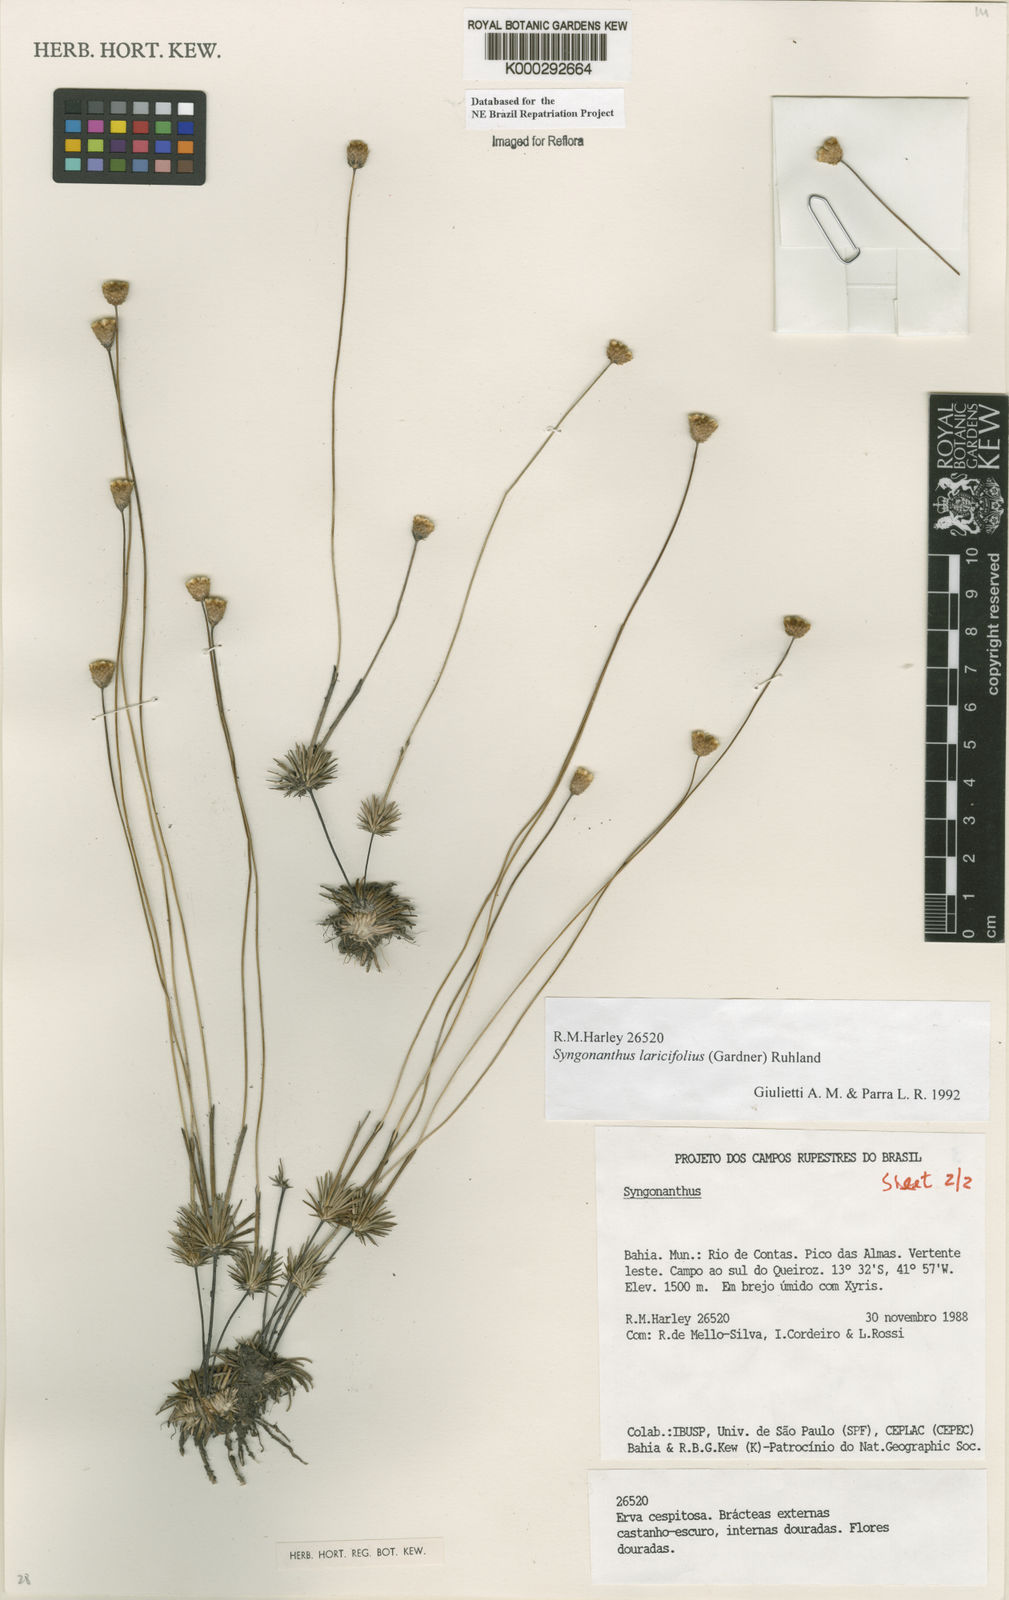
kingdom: Plantae
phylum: Tracheophyta
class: Liliopsida
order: Poales
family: Eriocaulaceae
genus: Syngonanthus
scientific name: Syngonanthus laricifolius
